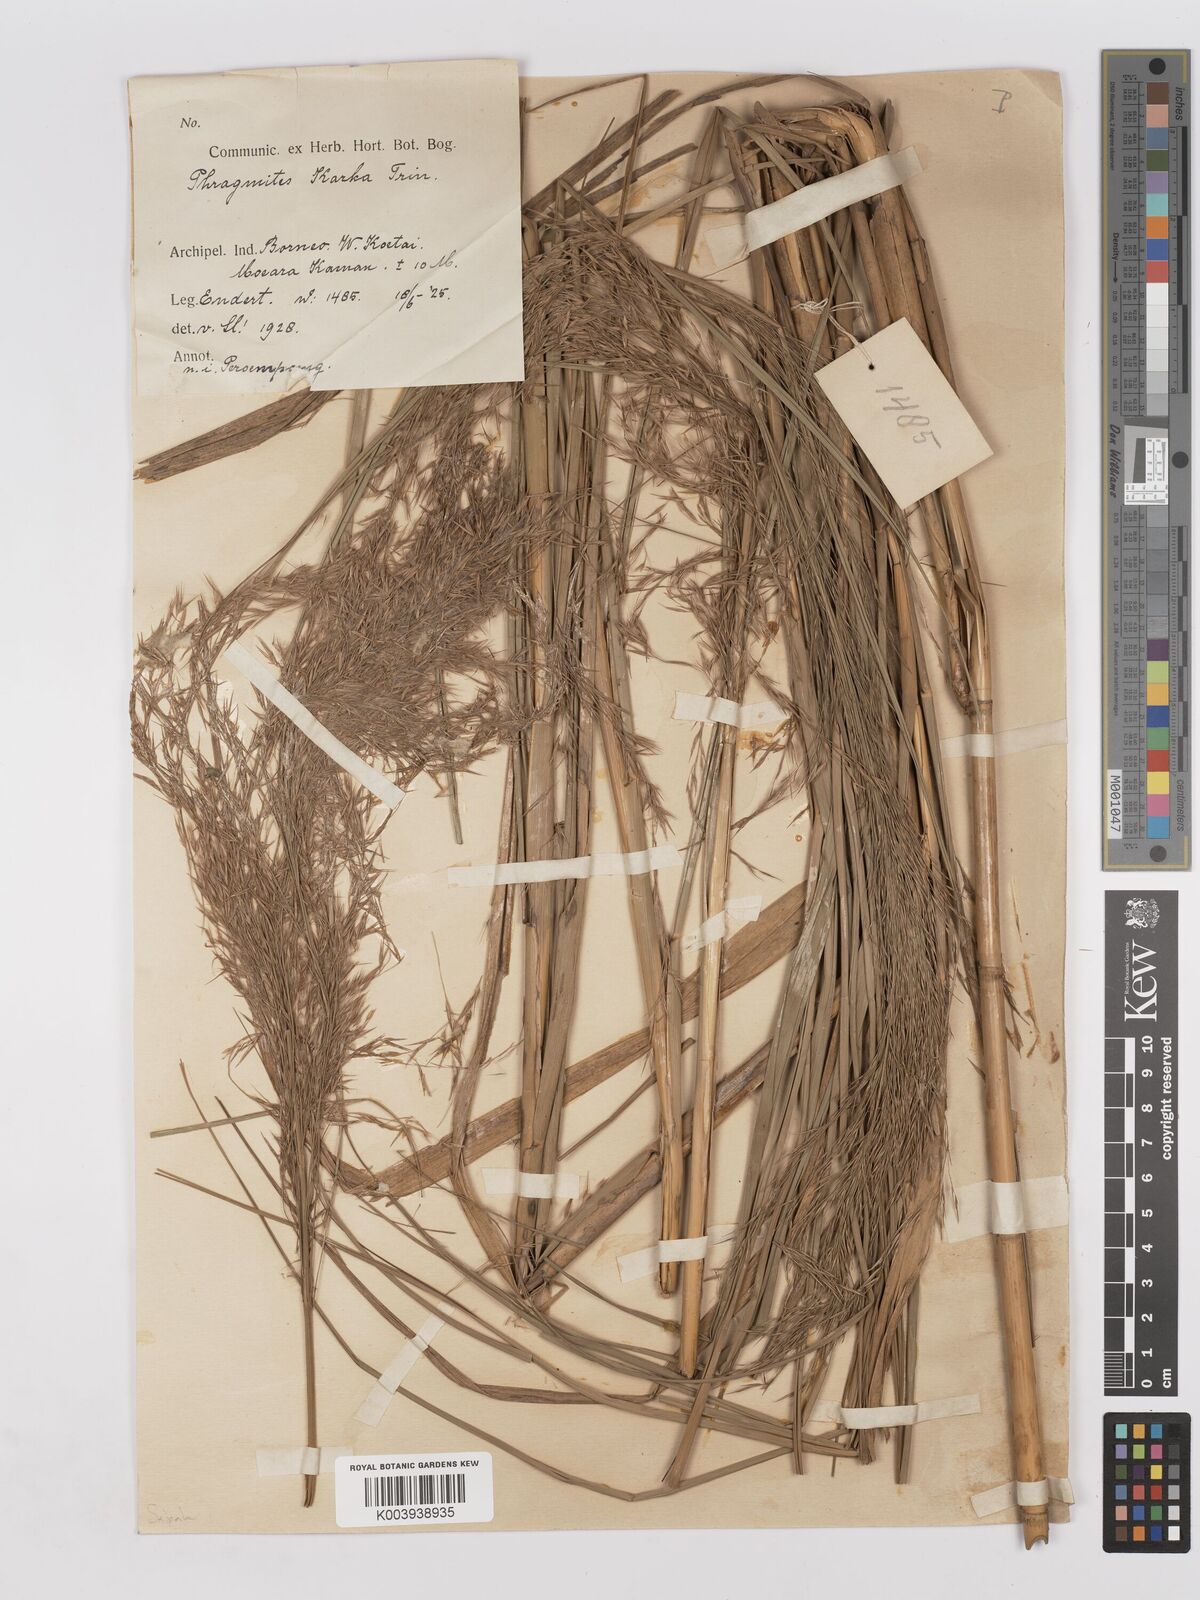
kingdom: Plantae
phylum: Tracheophyta
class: Liliopsida
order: Poales
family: Poaceae
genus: Phragmites
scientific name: Phragmites karka
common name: Tropical reed
